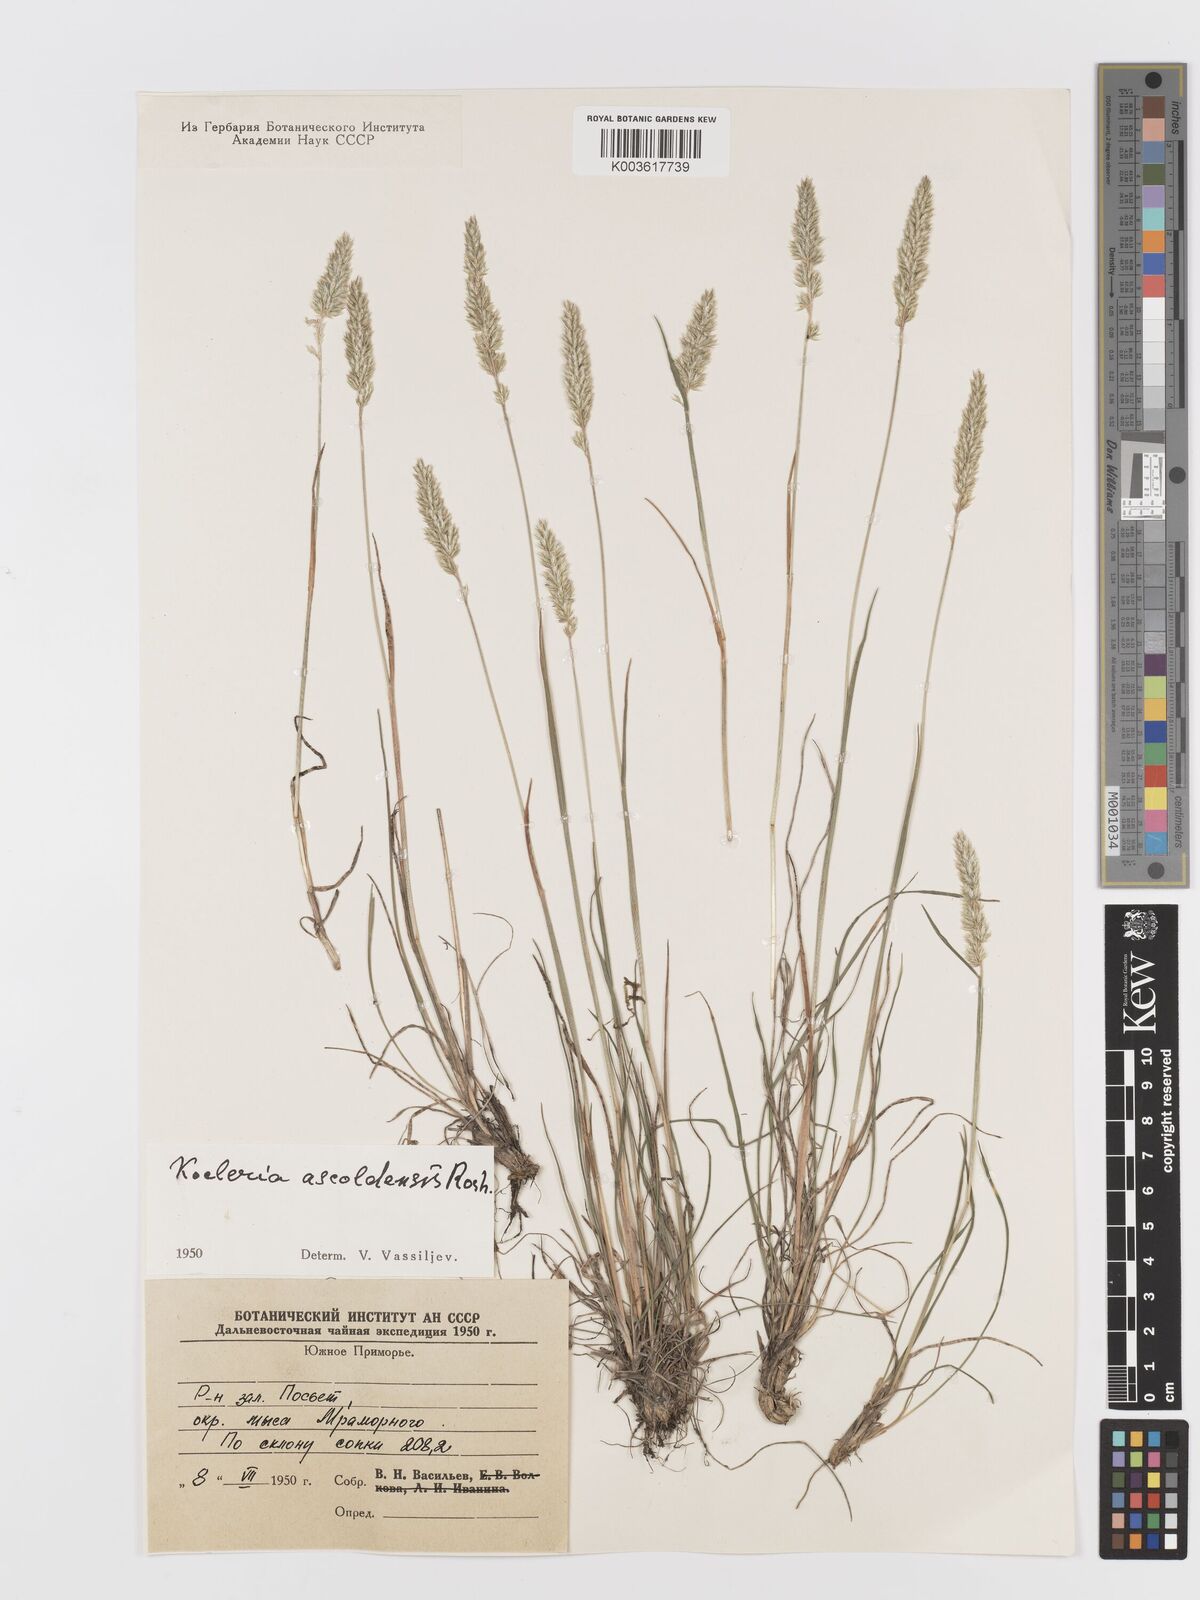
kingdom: Plantae
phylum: Tracheophyta
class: Liliopsida
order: Poales
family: Poaceae
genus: Koeleria
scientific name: Koeleria
